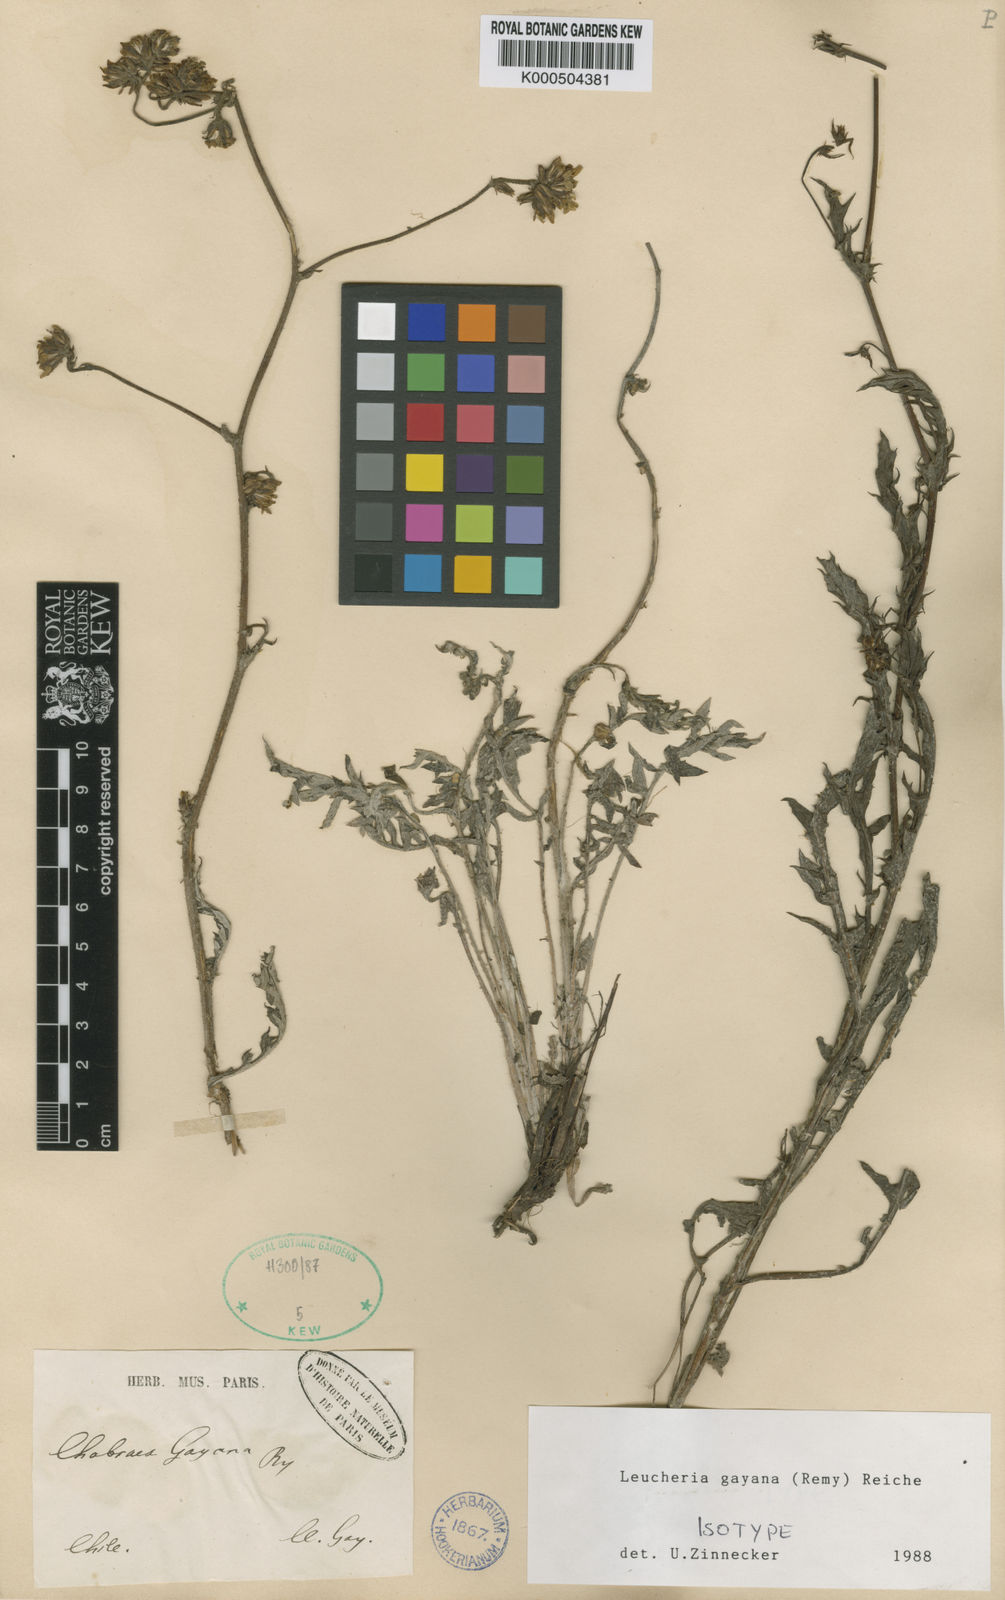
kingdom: Plantae
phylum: Tracheophyta
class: Magnoliopsida
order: Asterales
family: Asteraceae
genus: Leucheria
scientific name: Leucheria menana
